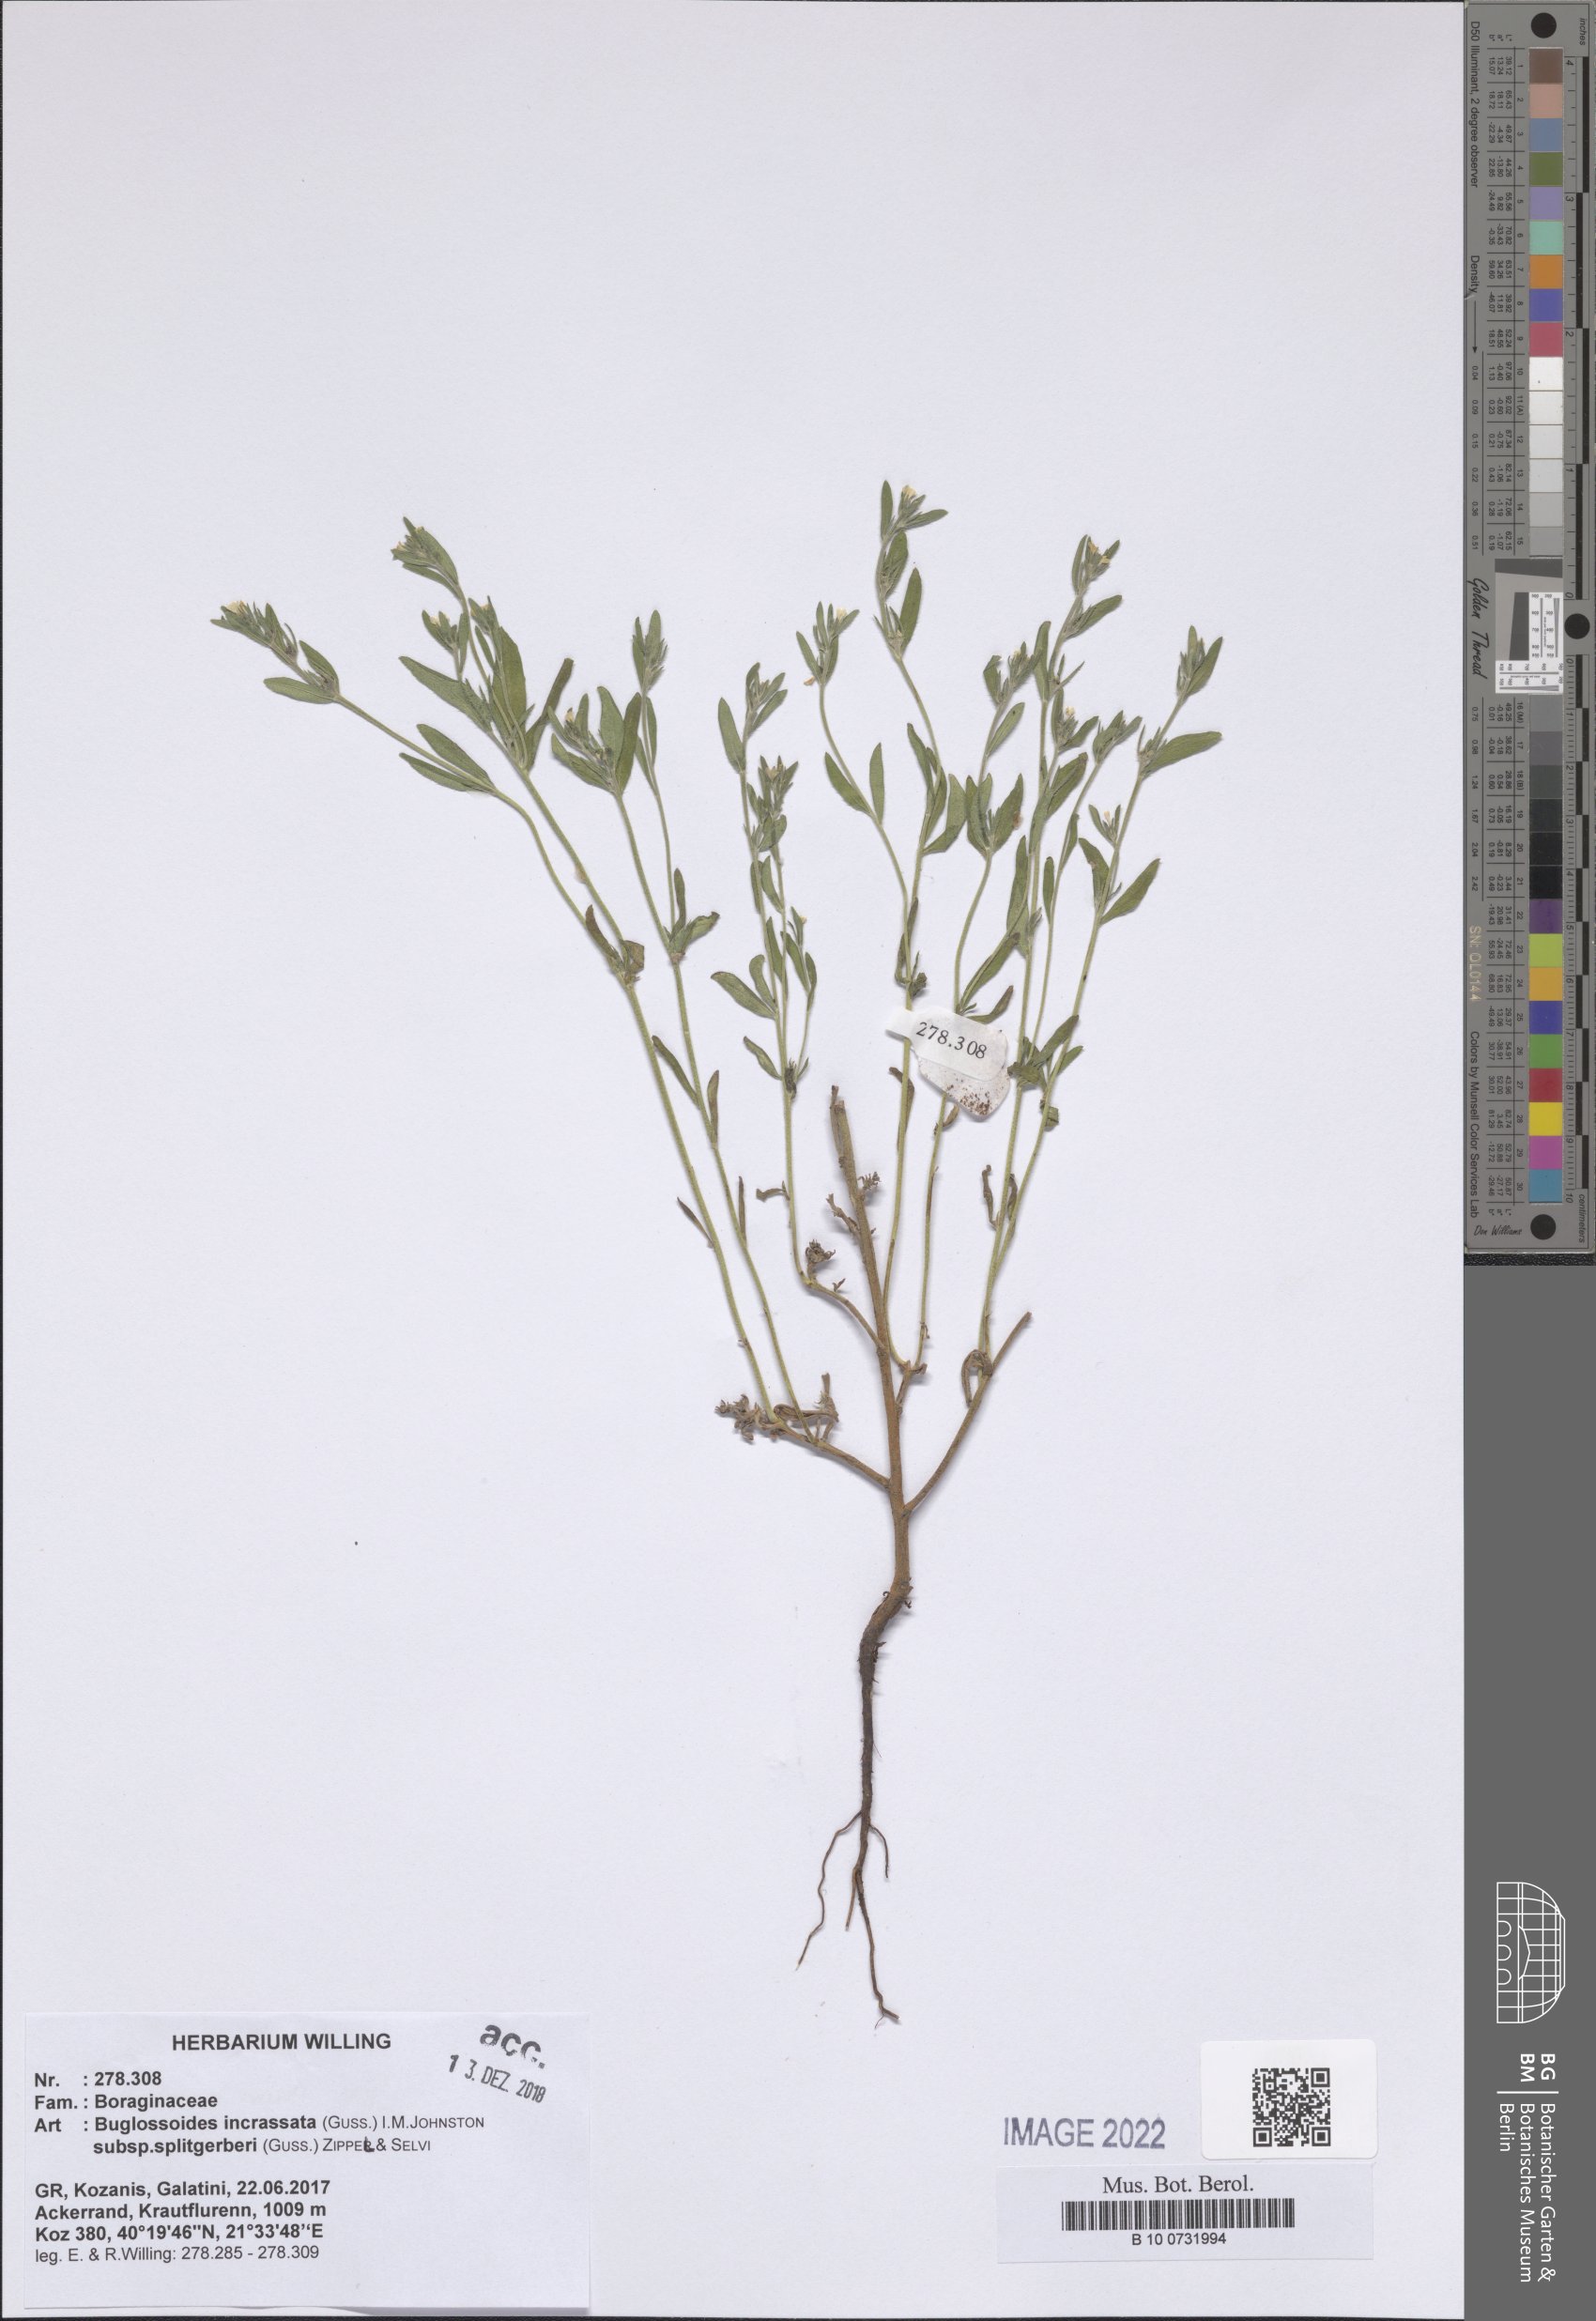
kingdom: Plantae
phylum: Tracheophyta
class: Magnoliopsida
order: Boraginales
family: Boraginaceae
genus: Buglossoides
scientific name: Buglossoides incrassata
